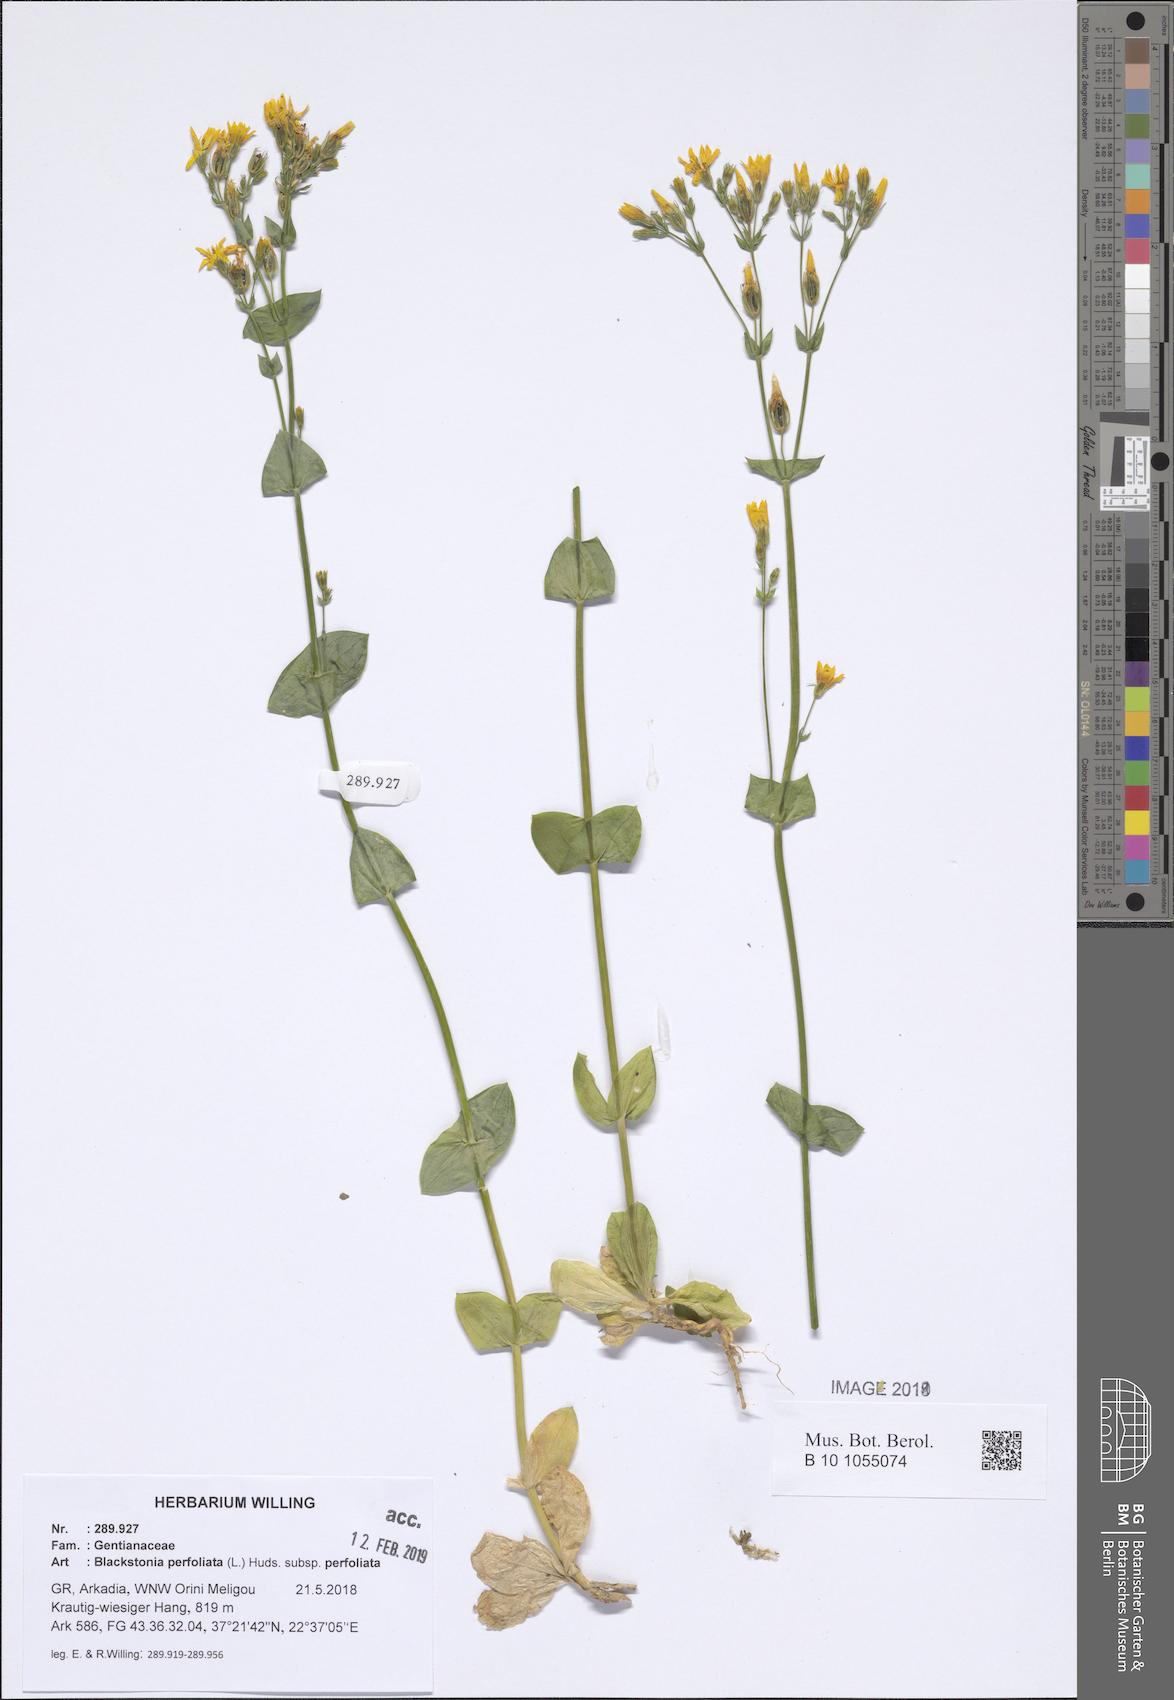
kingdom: Plantae
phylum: Tracheophyta
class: Magnoliopsida
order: Gentianales
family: Gentianaceae
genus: Blackstonia
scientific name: Blackstonia perfoliata
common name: Yellow-wort
